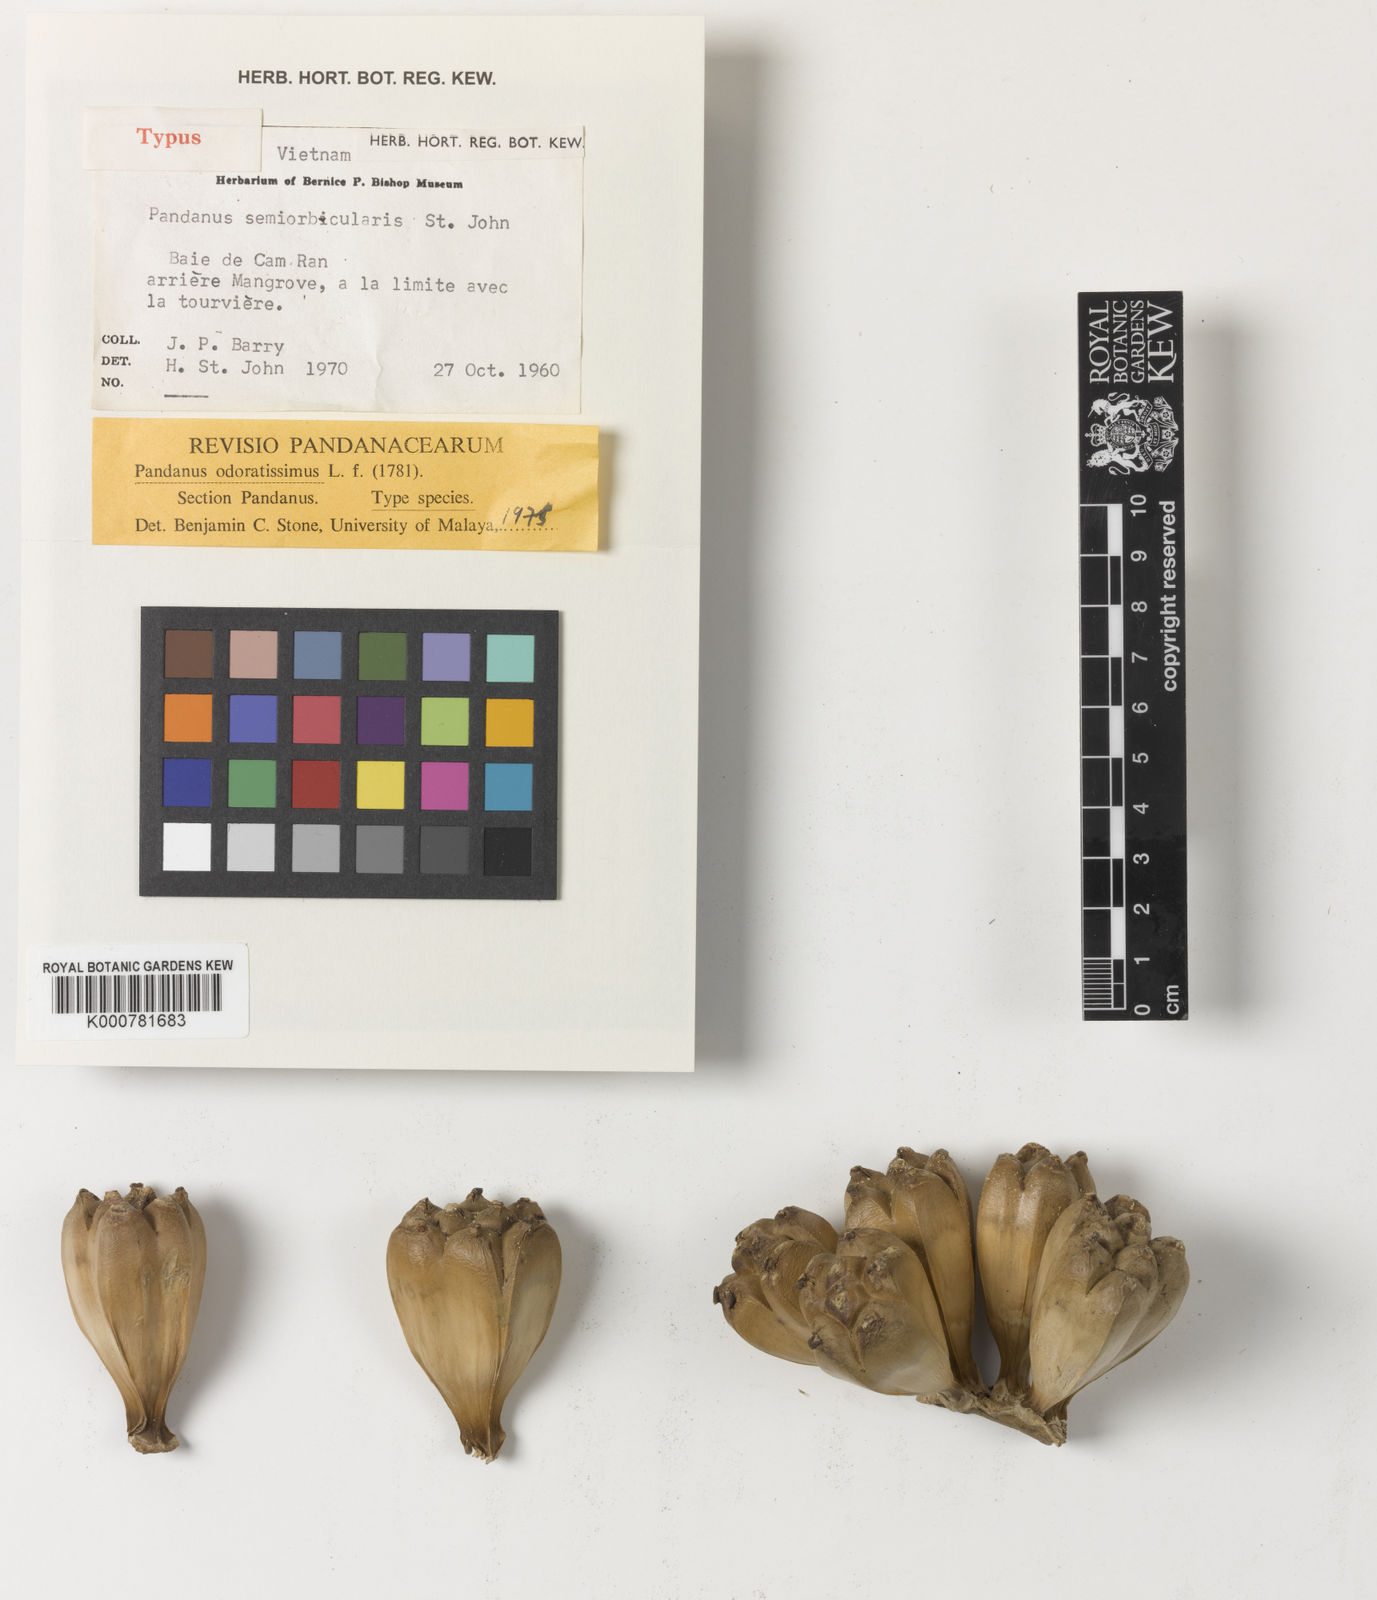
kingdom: Plantae
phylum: Tracheophyta
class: Liliopsida
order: Pandanales
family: Pandanaceae
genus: Pandanus
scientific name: Pandanus odorifer
